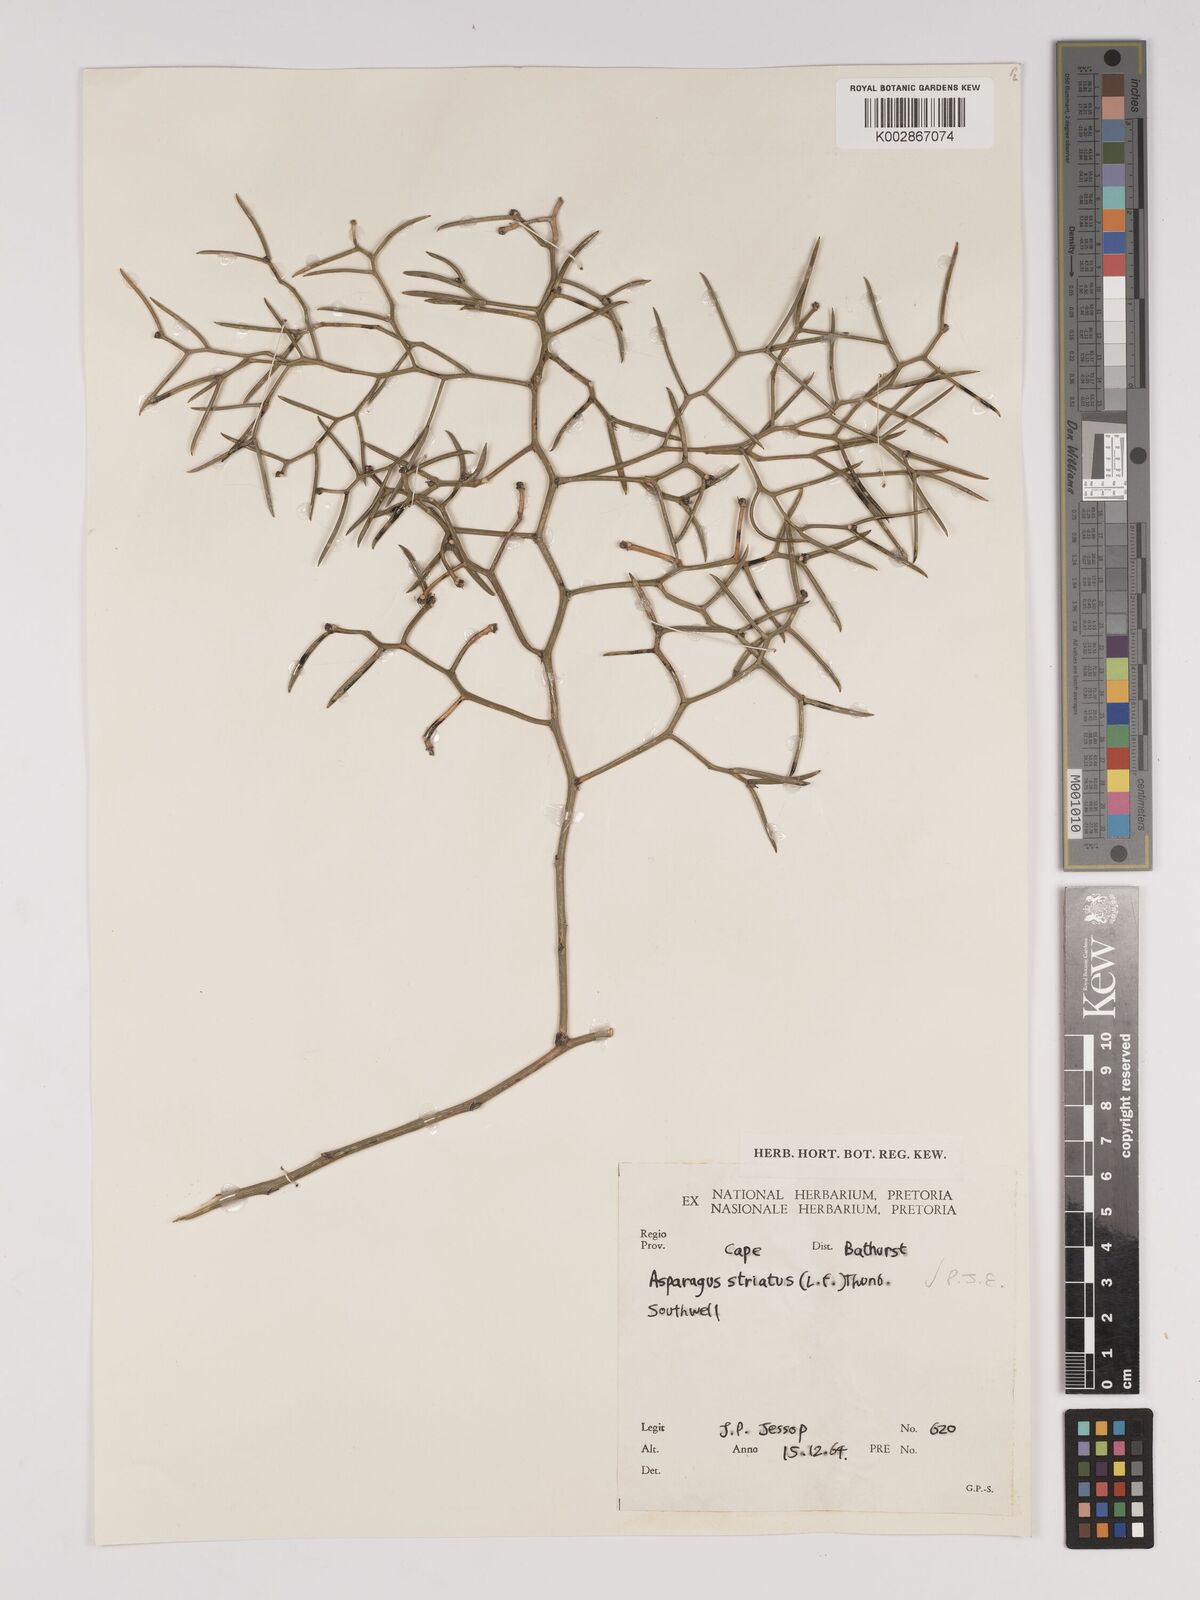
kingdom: Plantae
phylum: Tracheophyta
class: Liliopsida
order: Asparagales
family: Asparagaceae
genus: Asparagus
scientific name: Asparagus striatus
